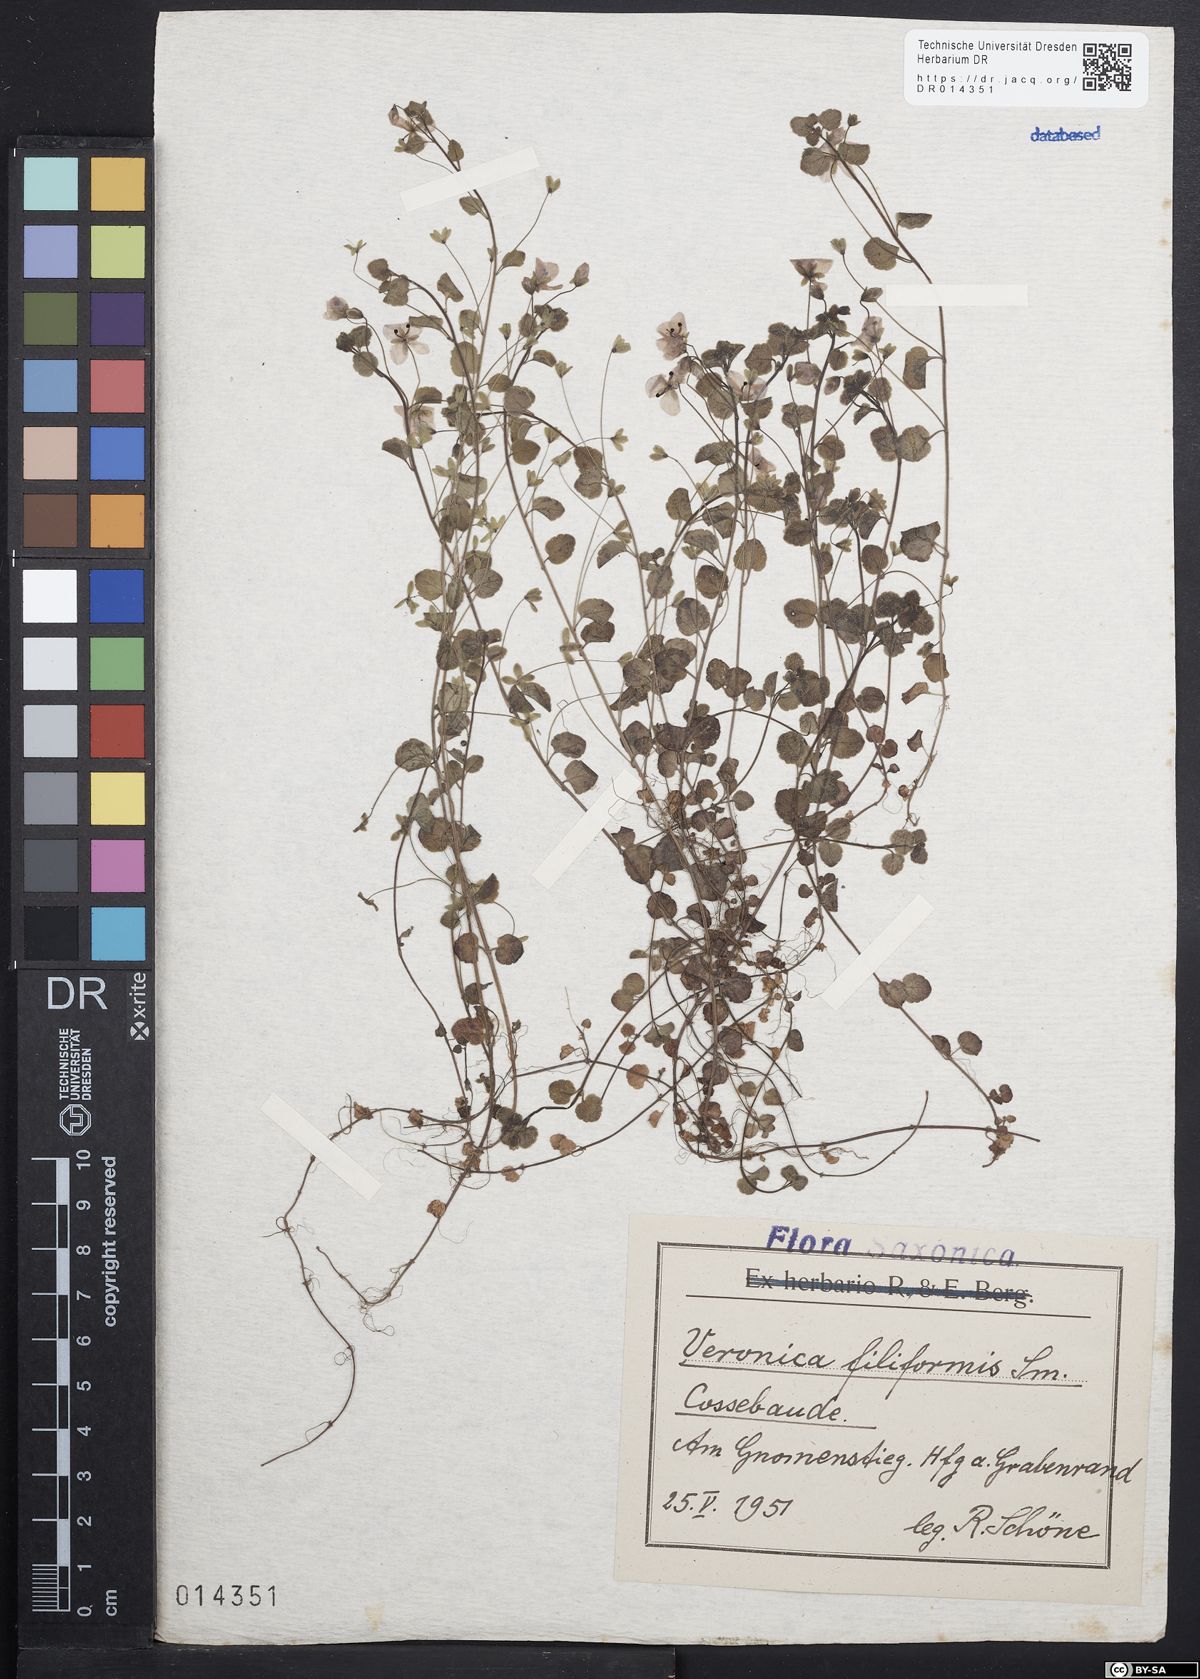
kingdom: Plantae
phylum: Tracheophyta
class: Magnoliopsida
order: Lamiales
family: Plantaginaceae
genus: Veronica
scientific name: Veronica filiformis
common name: Slender speedwell
